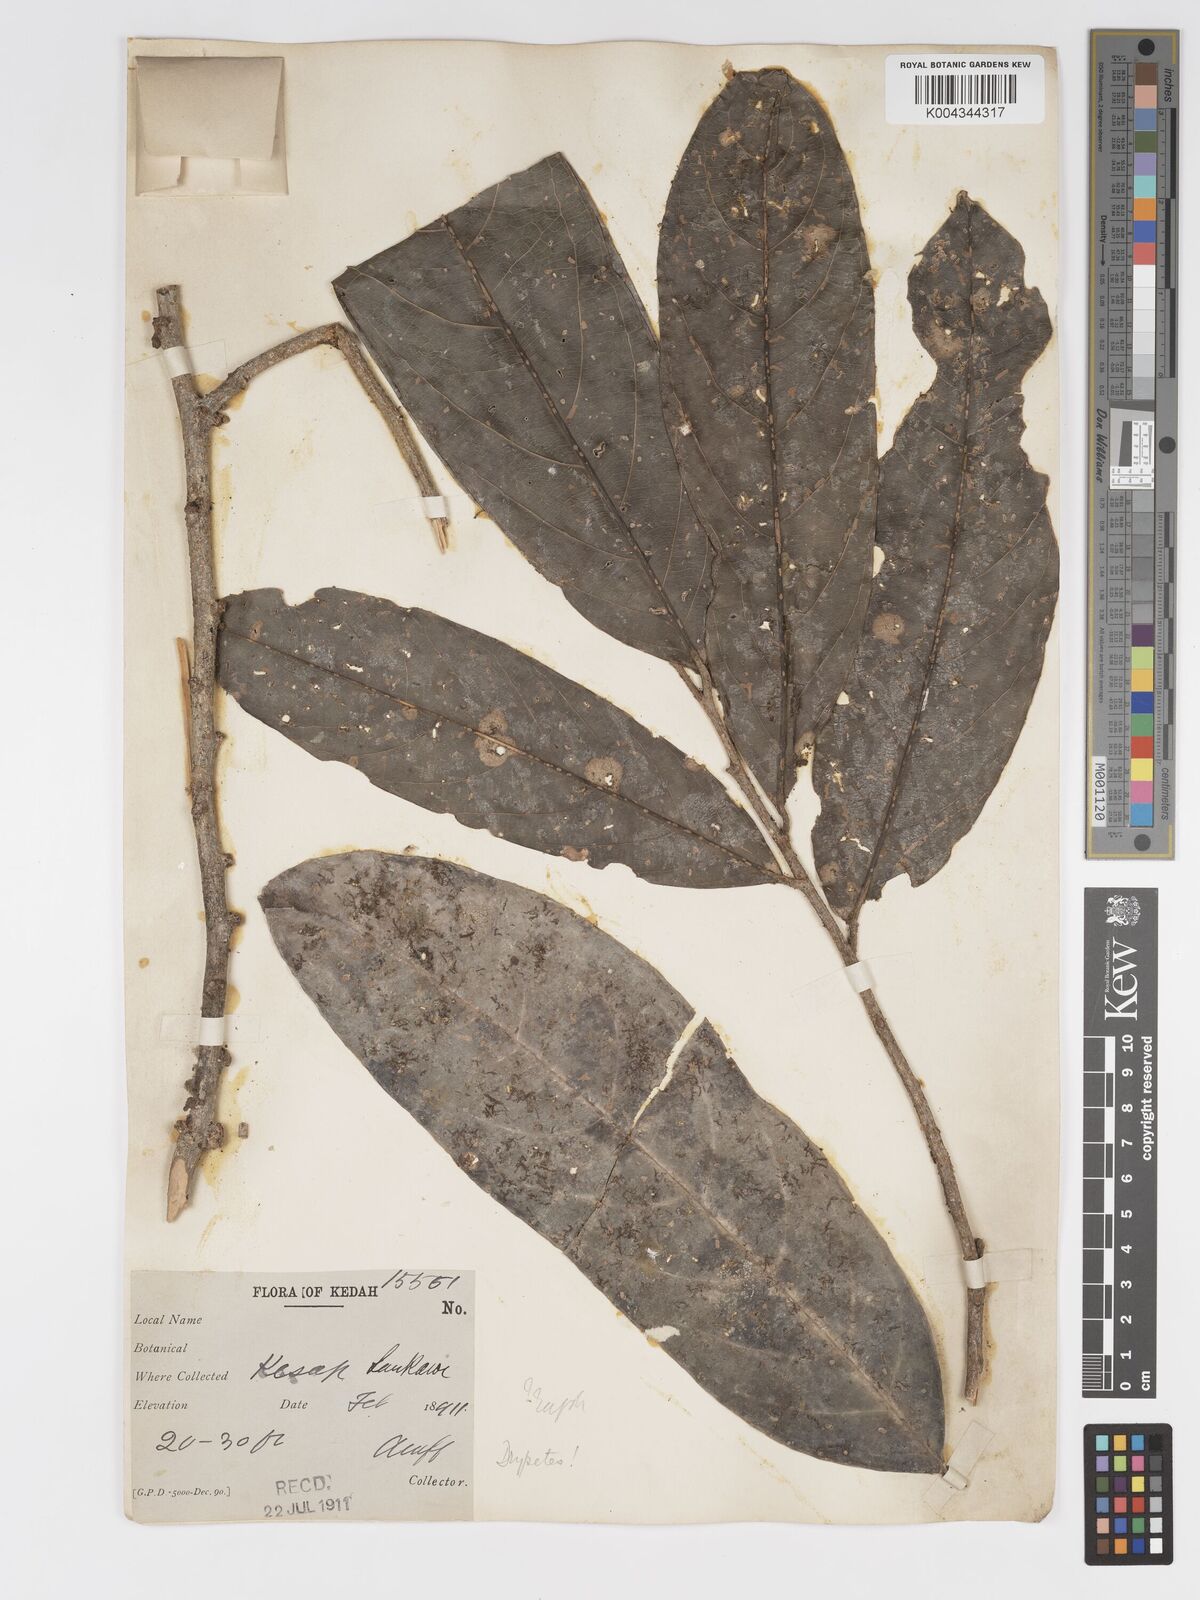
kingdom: Plantae
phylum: Tracheophyta
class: Magnoliopsida
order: Malpighiales
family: Putranjivaceae
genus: Drypetes
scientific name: Drypetes longifolia
